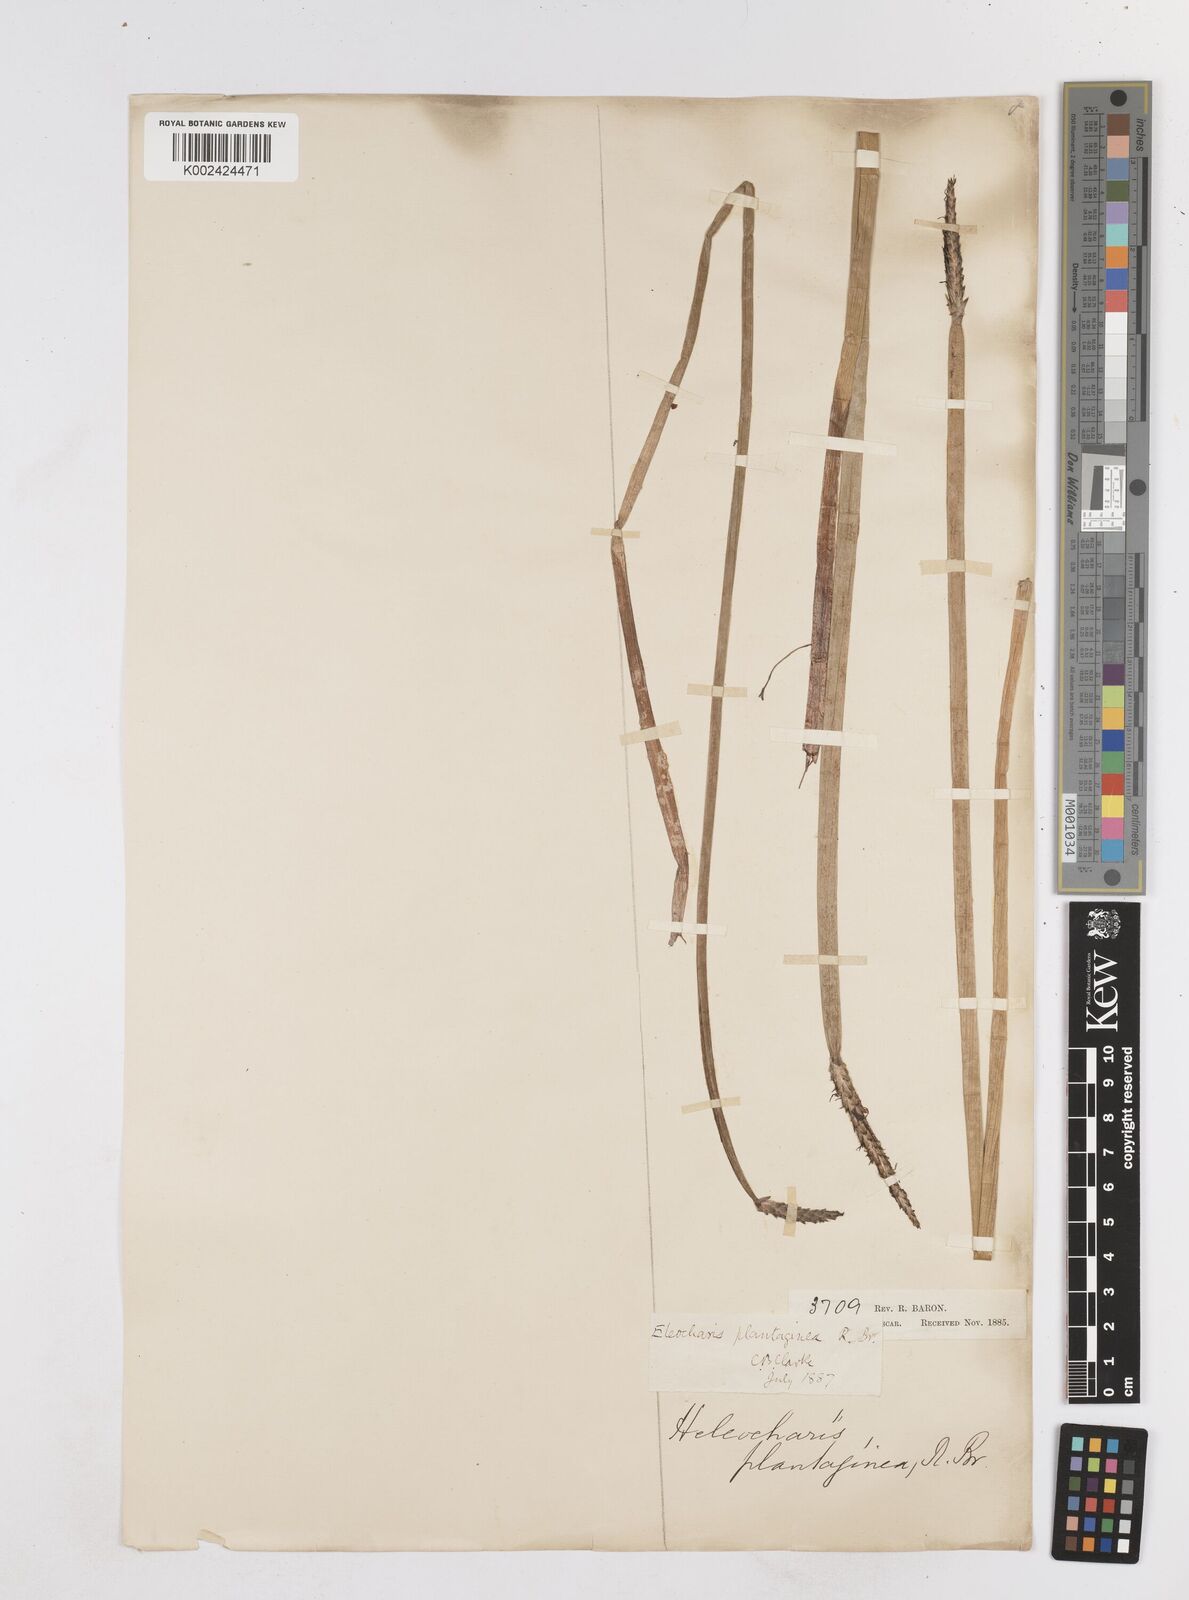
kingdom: Plantae
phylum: Tracheophyta
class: Liliopsida
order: Poales
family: Cyperaceae
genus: Eleocharis
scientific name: Eleocharis dulcis
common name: Chinese water chestnut
